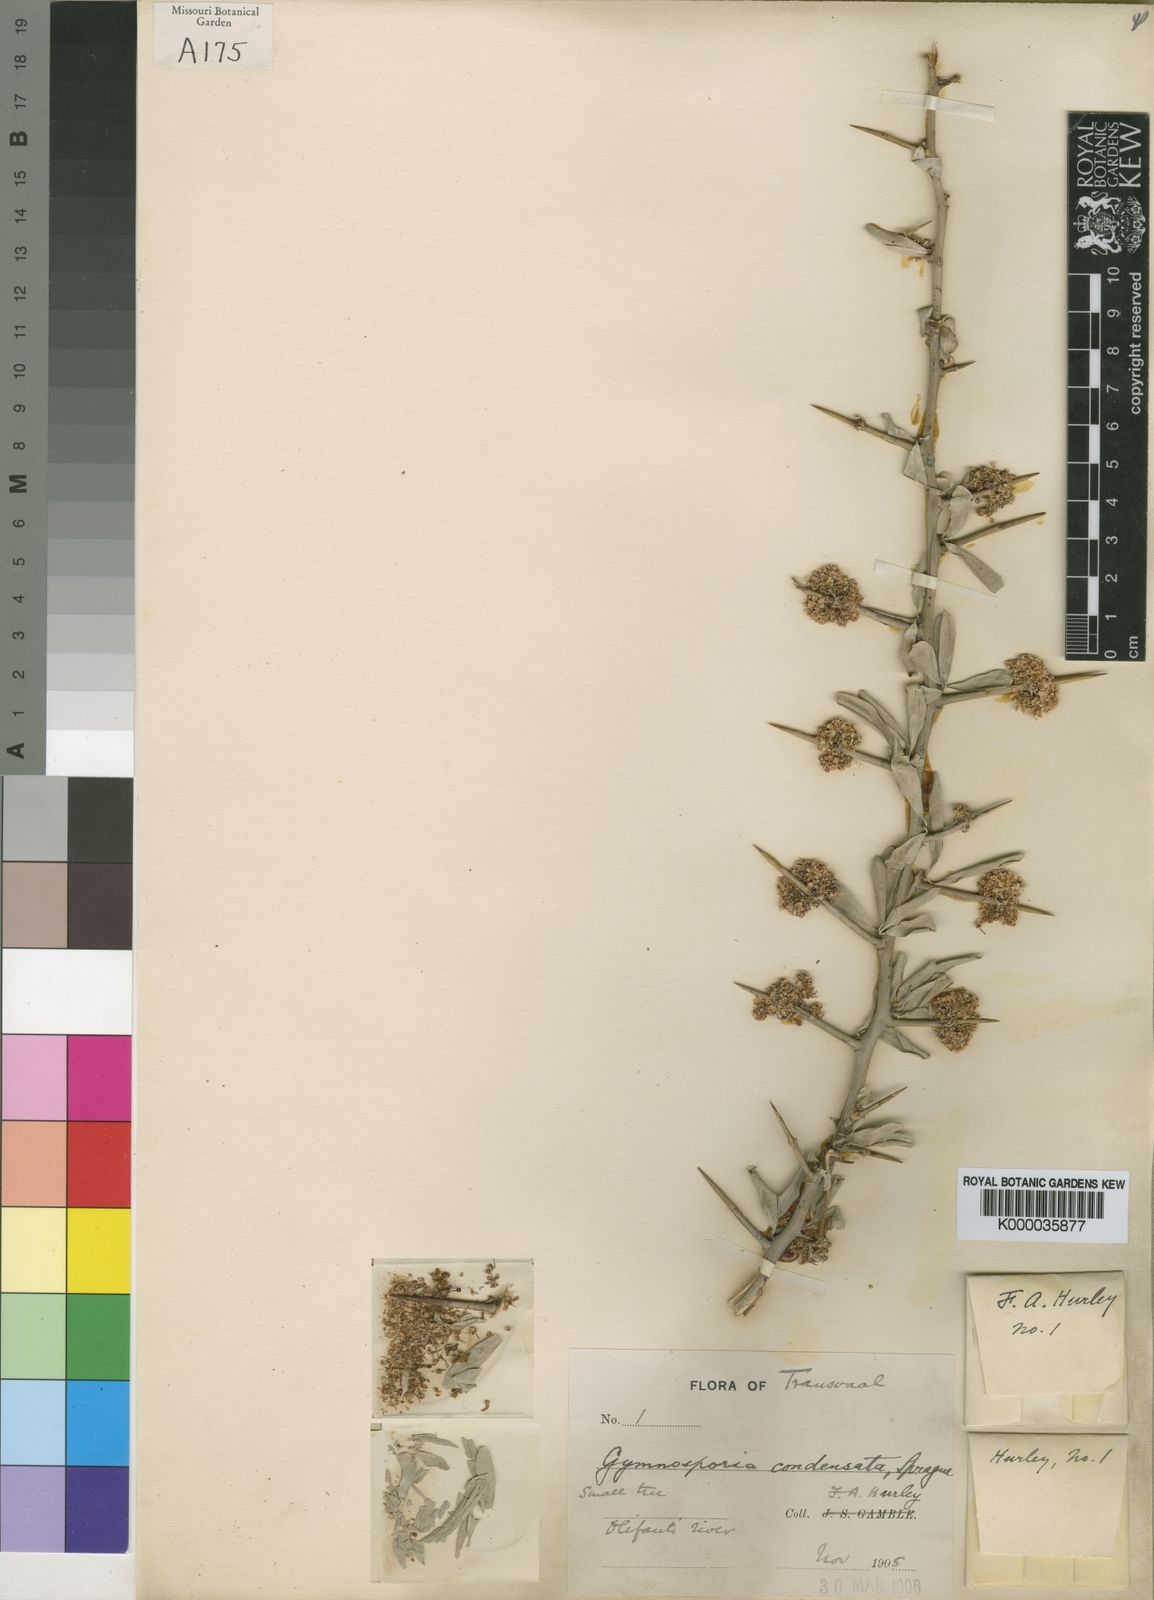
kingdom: Plantae
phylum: Tracheophyta
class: Magnoliopsida
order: Celastrales
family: Celastraceae
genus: Gymnosporia
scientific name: Gymnosporia heterophylla
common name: Angle-stem spikethorn
